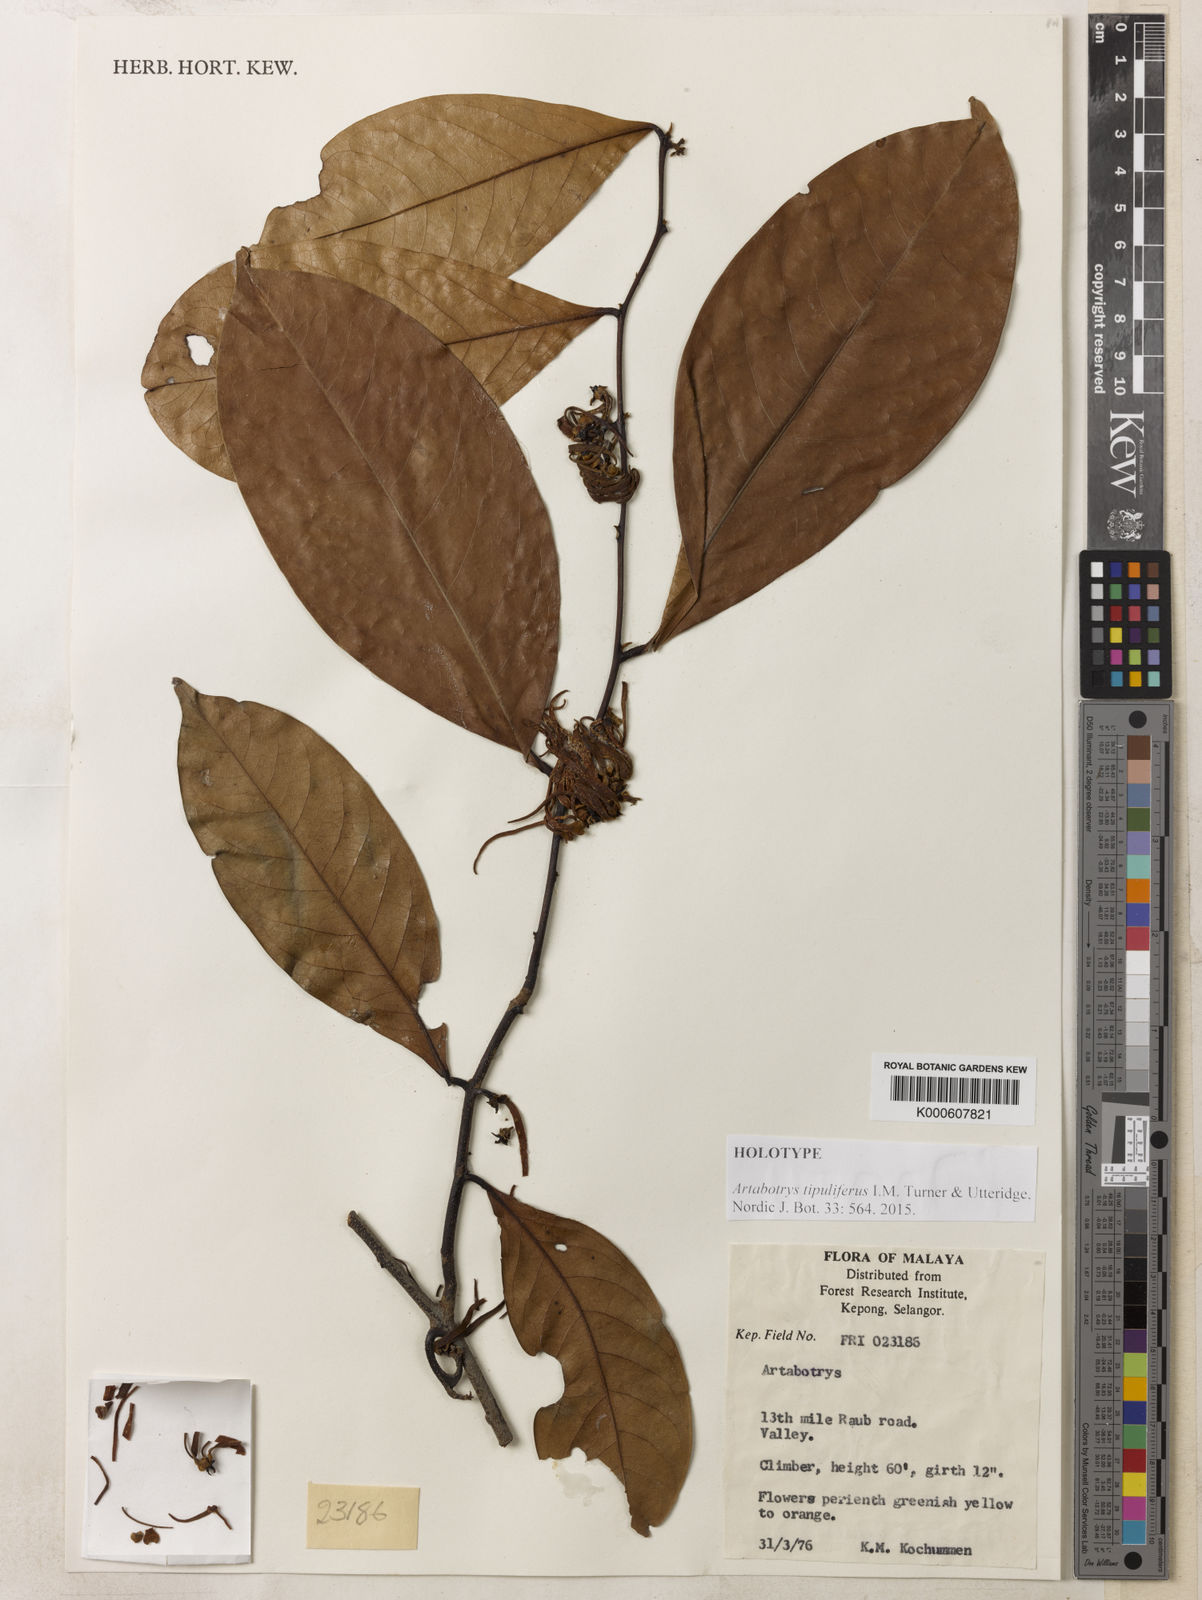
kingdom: Plantae
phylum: Tracheophyta
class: Magnoliopsida
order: Magnoliales
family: Annonaceae
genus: Artabotrys
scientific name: Artabotrys
